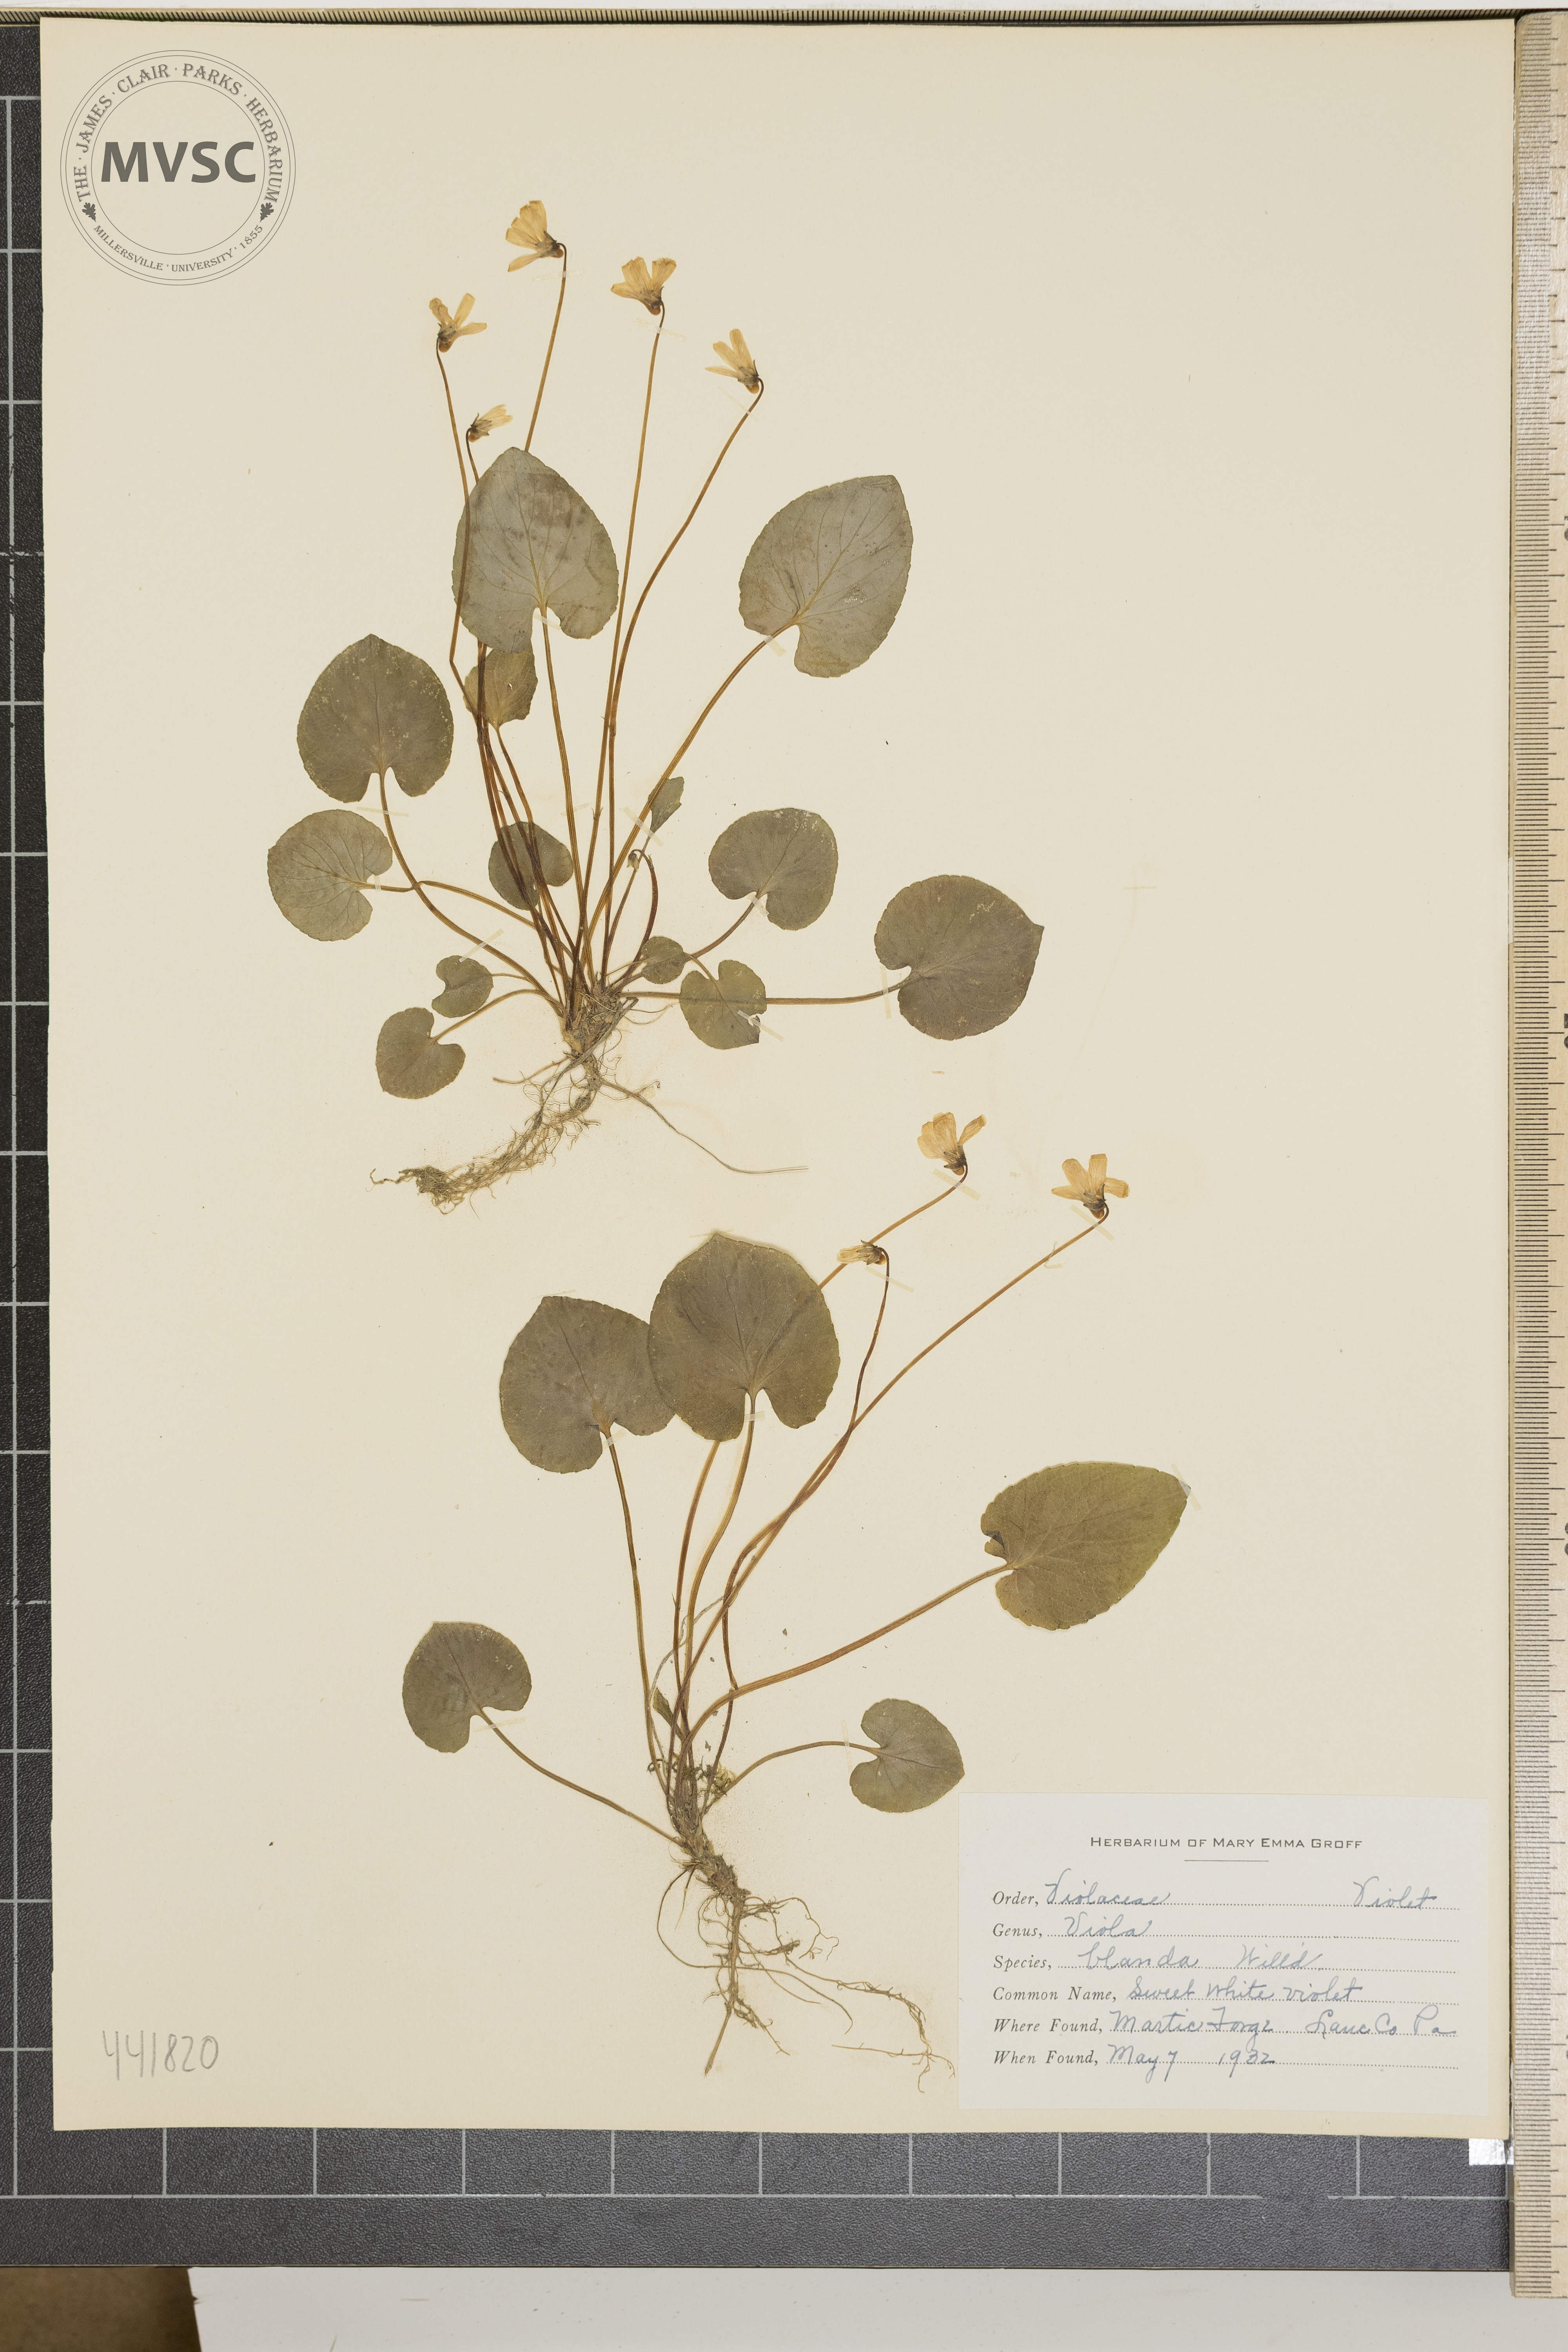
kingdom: Plantae
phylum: Tracheophyta
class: Magnoliopsida
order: Malpighiales
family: Violaceae
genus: Viola
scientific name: Viola blanda
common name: Sweet white violet
